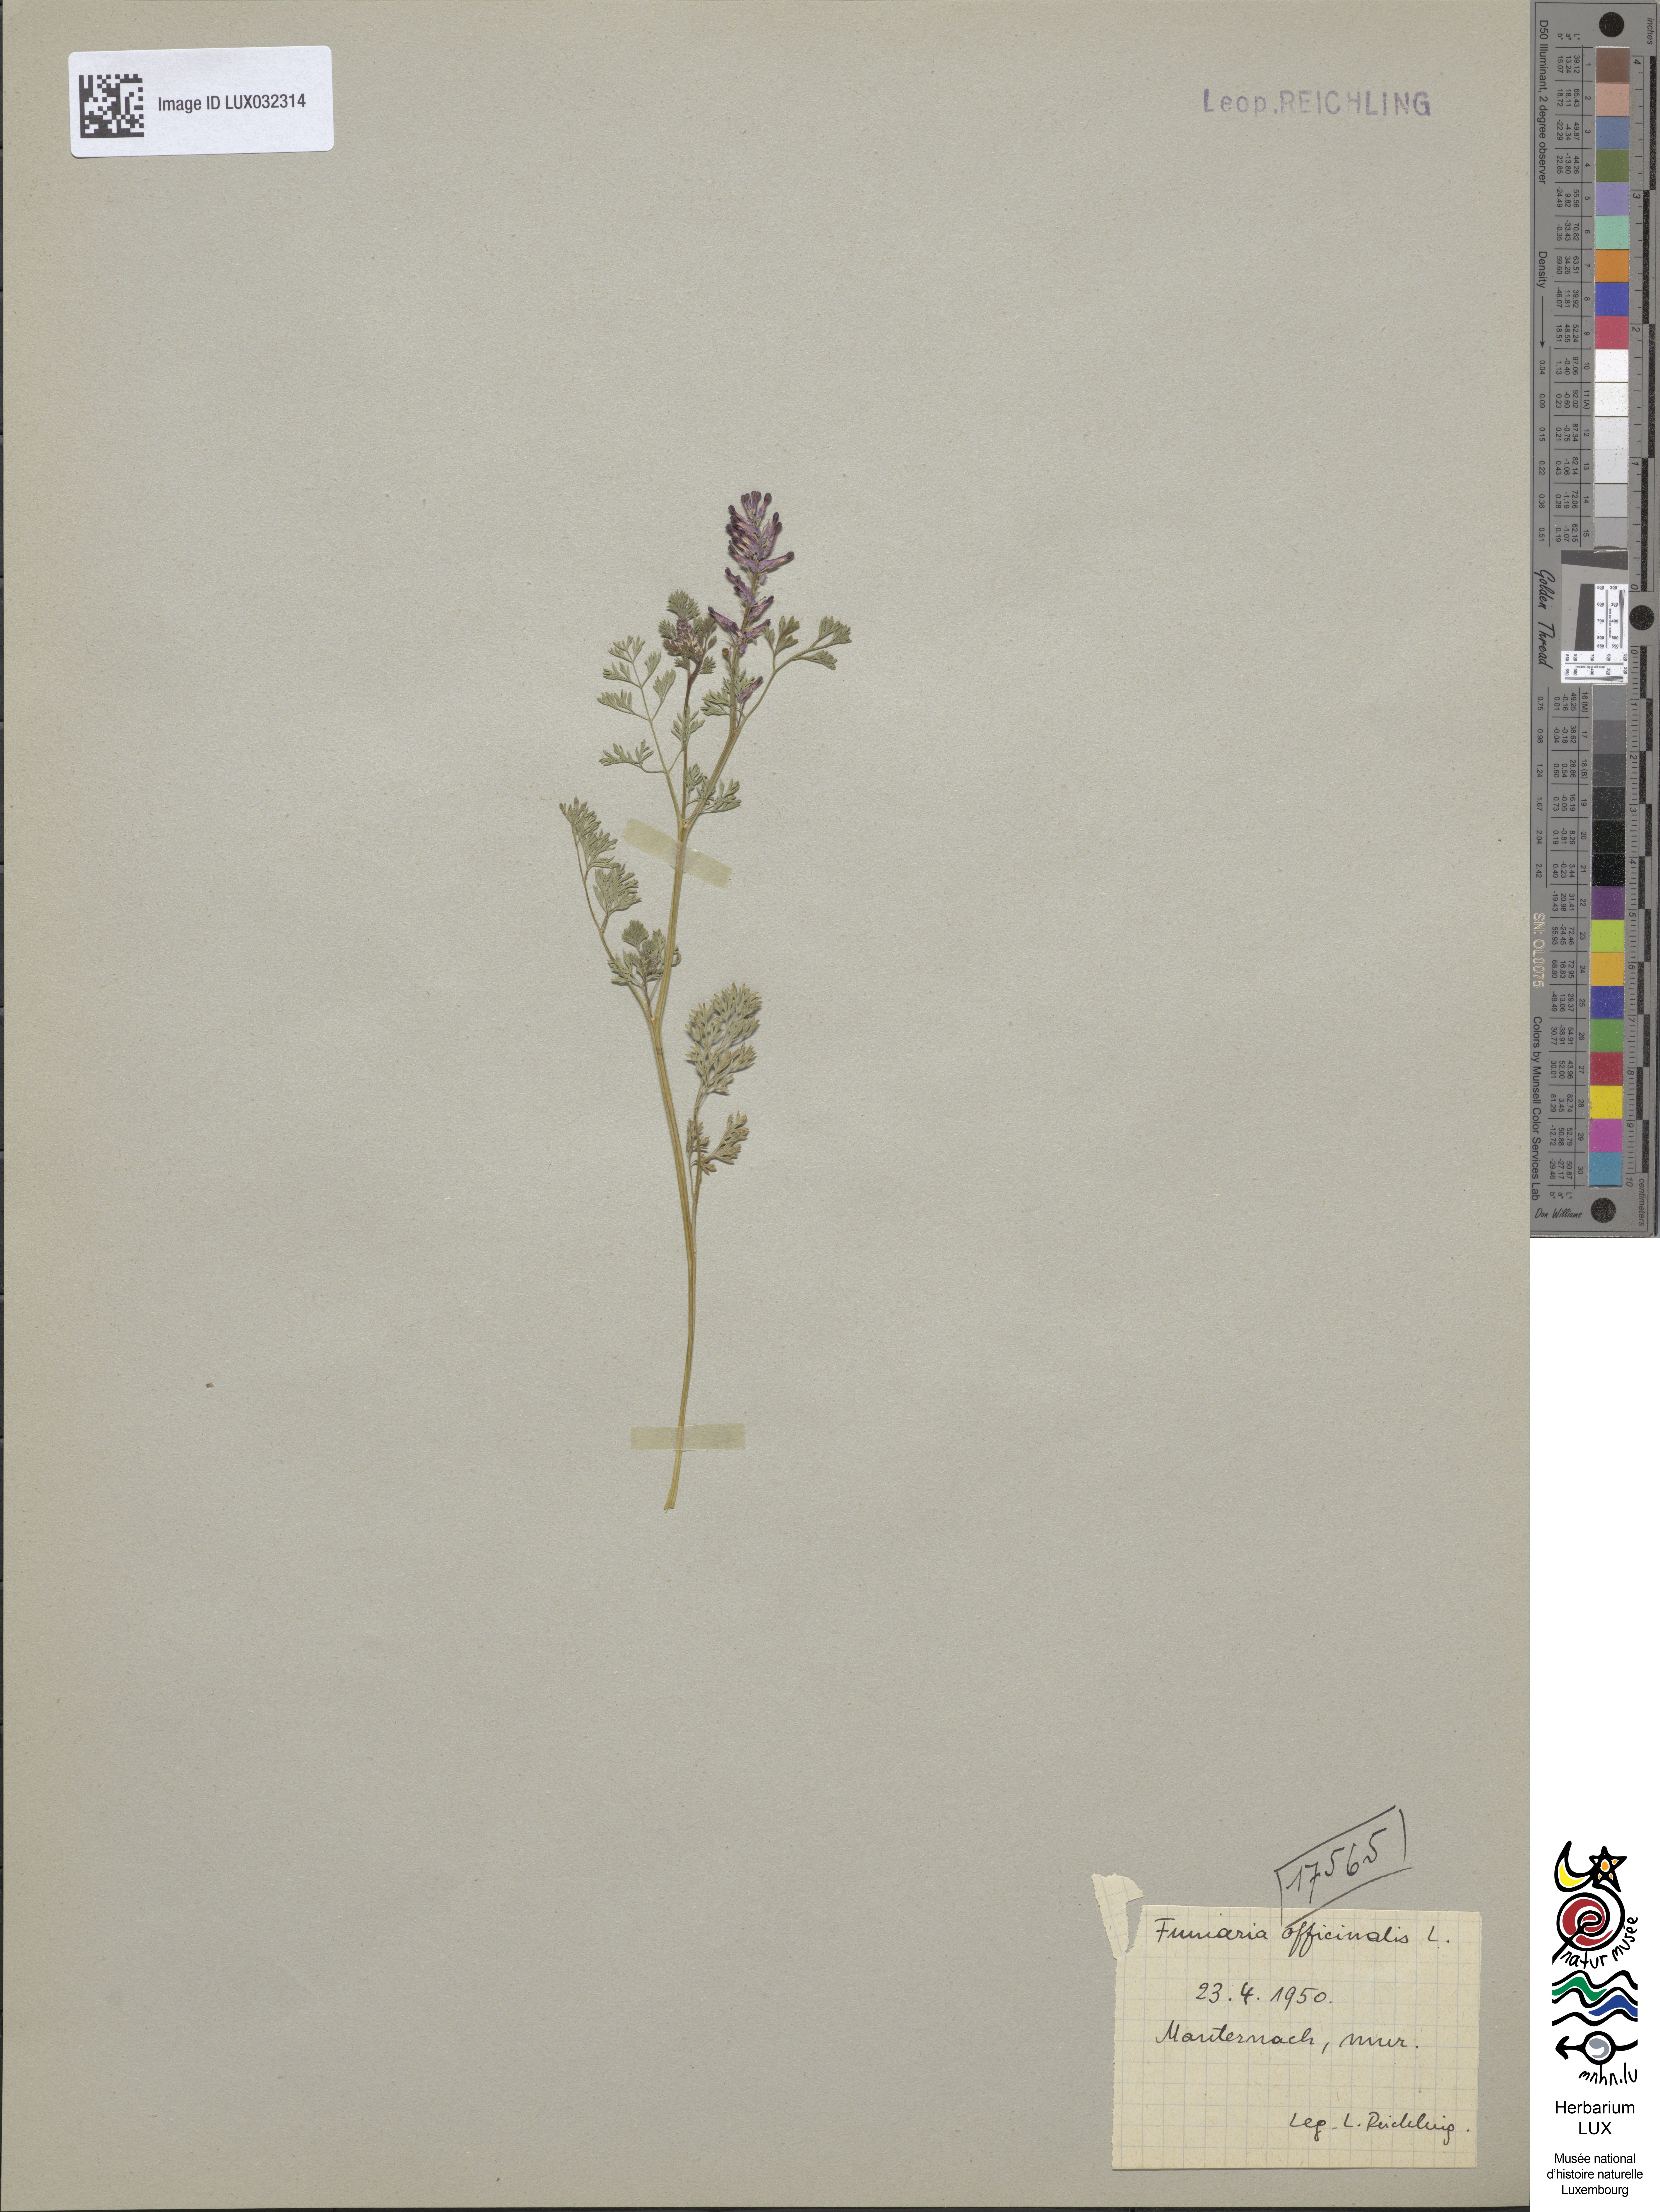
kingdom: Plantae
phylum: Tracheophyta
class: Magnoliopsida
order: Ranunculales
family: Papaveraceae
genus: Fumaria
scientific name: Fumaria officinalis
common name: Common fumitory
